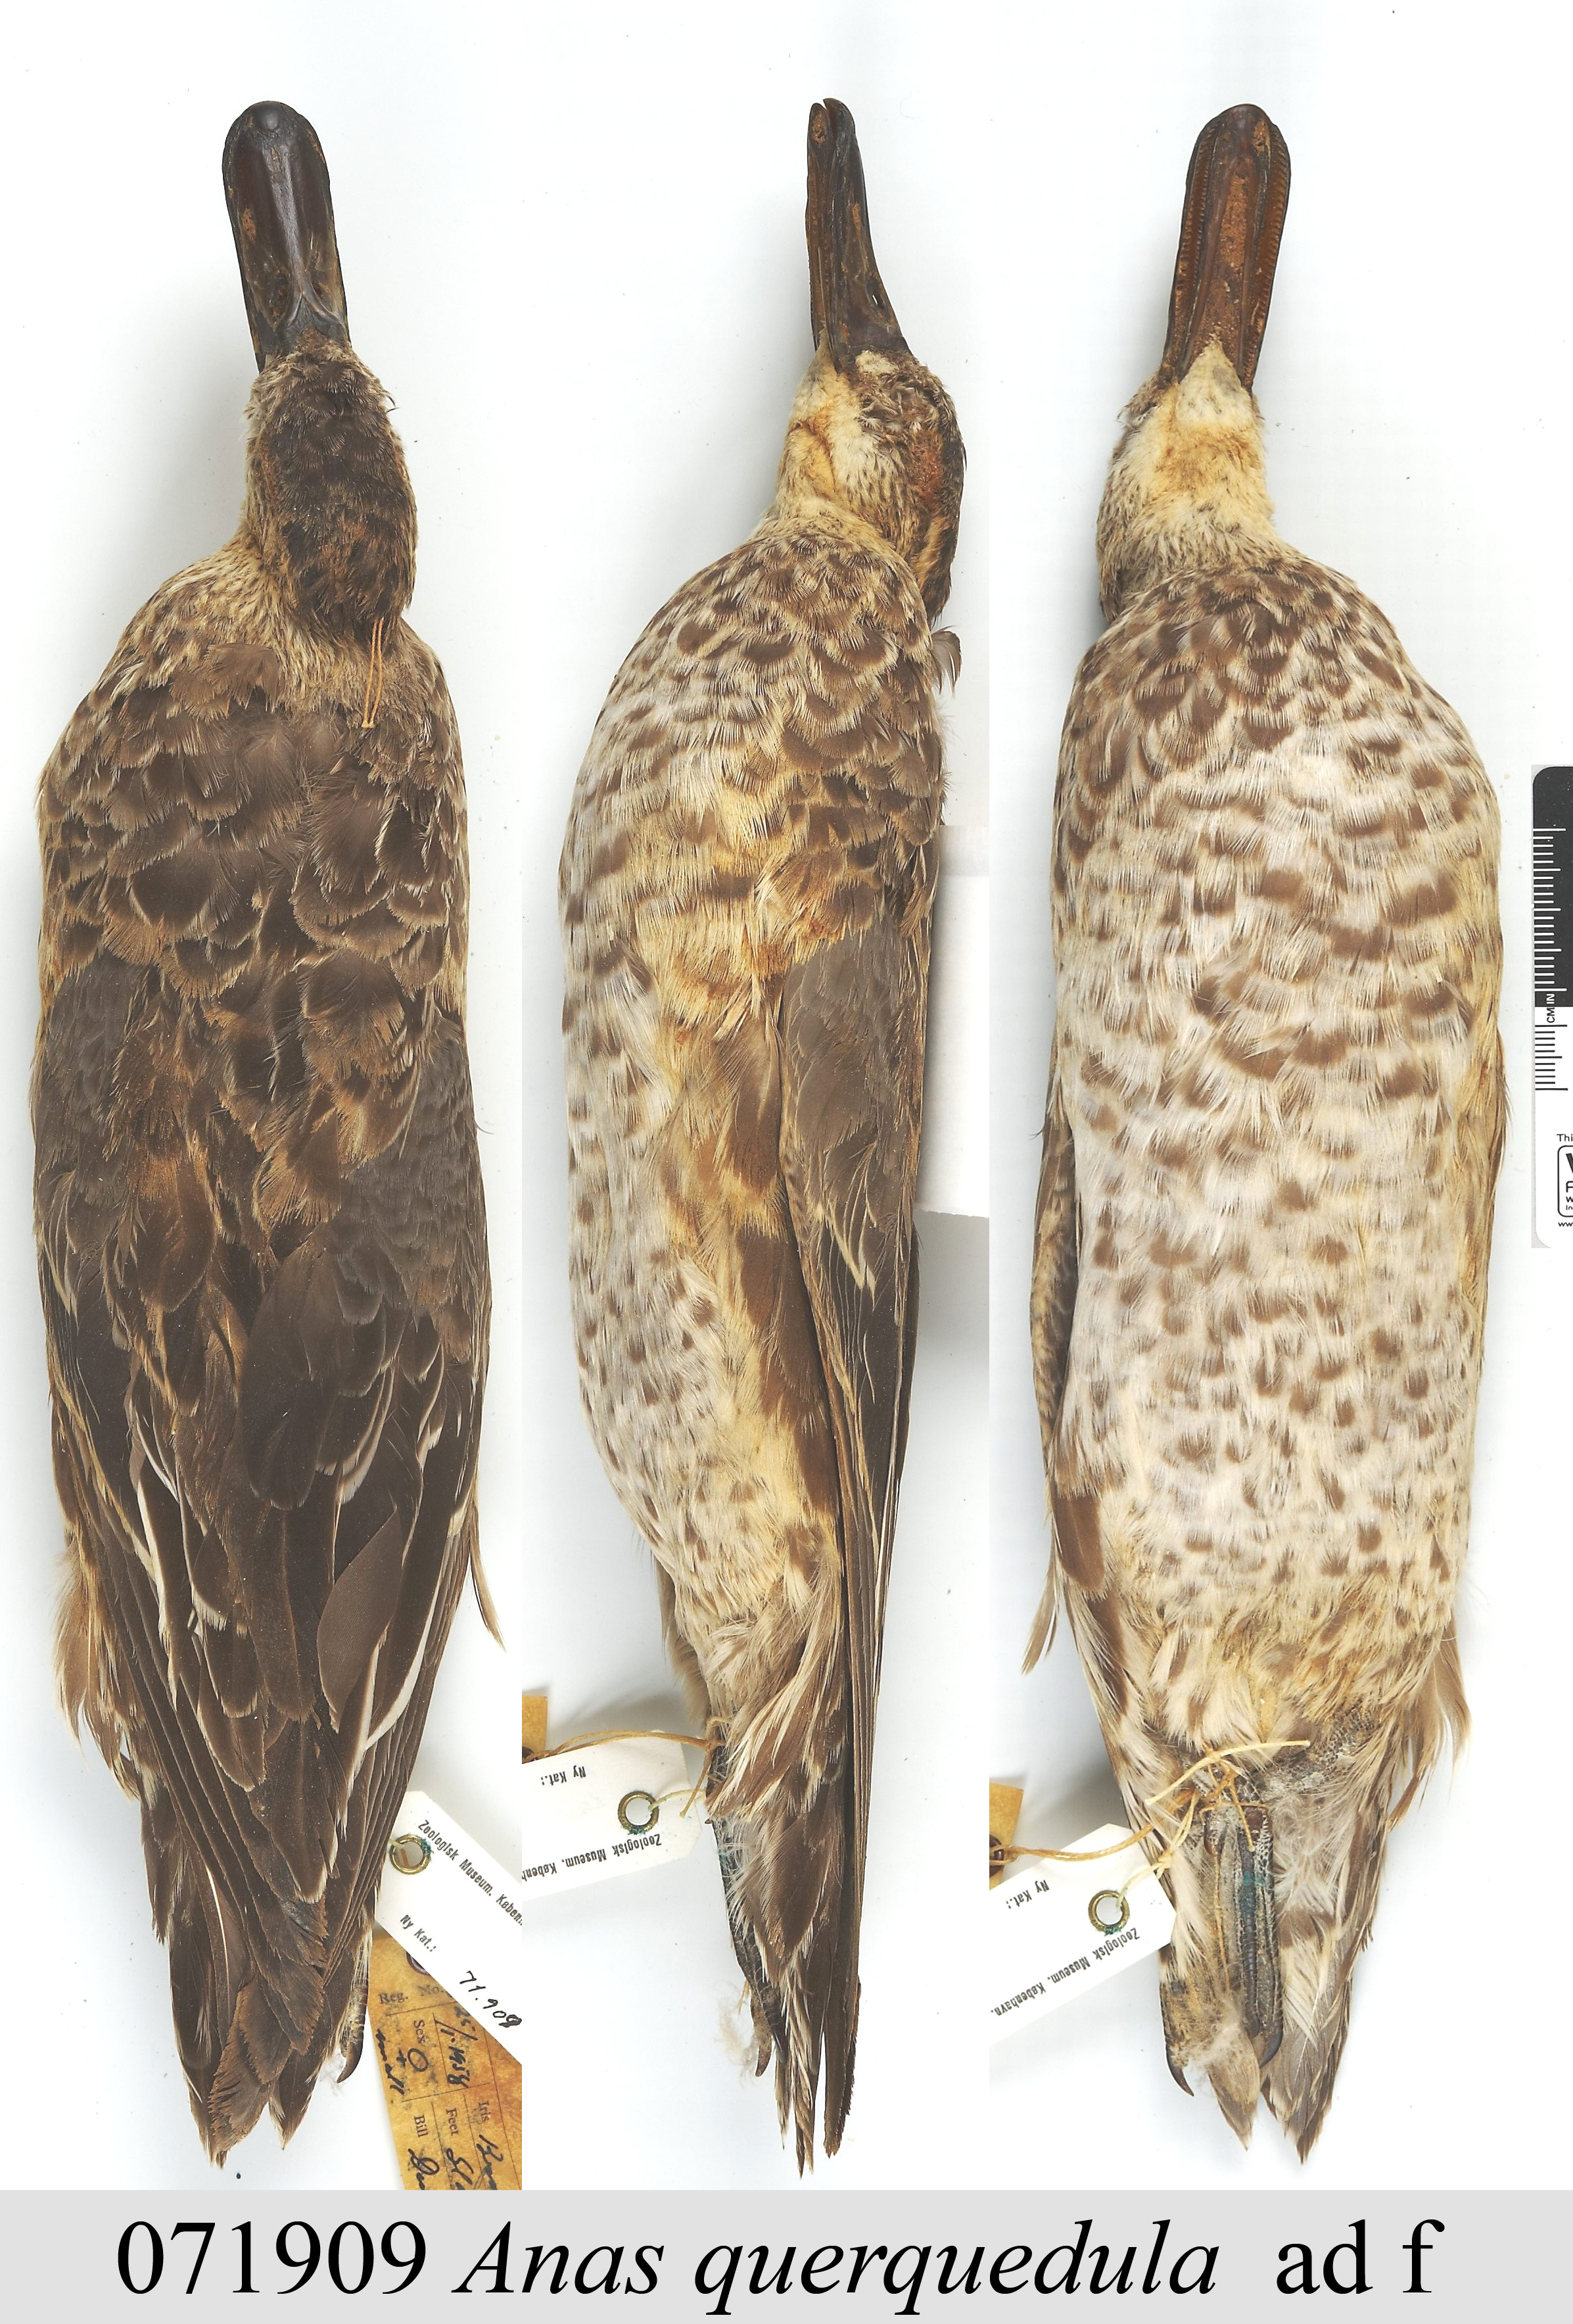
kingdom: Animalia
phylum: Chordata
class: Aves
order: Anseriformes
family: Anatidae
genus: Spatula
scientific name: Spatula querquedula
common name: Garganey
